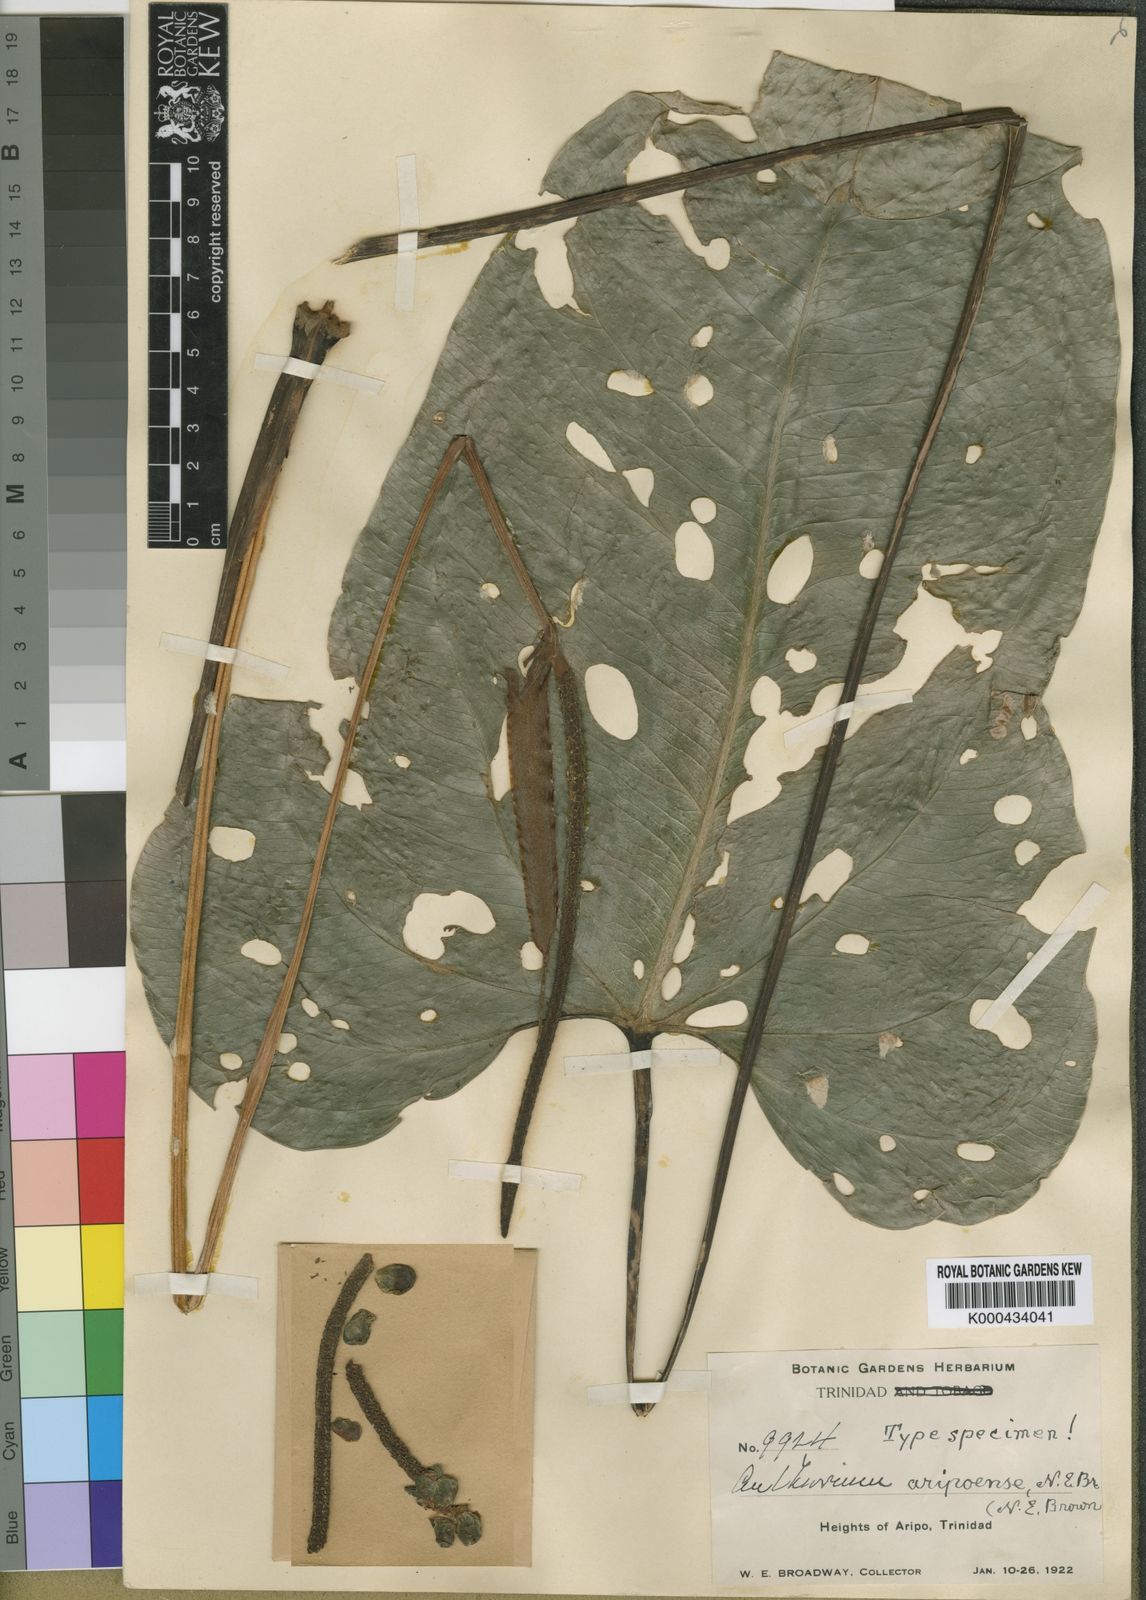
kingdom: Plantae
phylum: Tracheophyta
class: Liliopsida
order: Alismatales
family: Araceae
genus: Anthurium
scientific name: Anthurium aripoense
